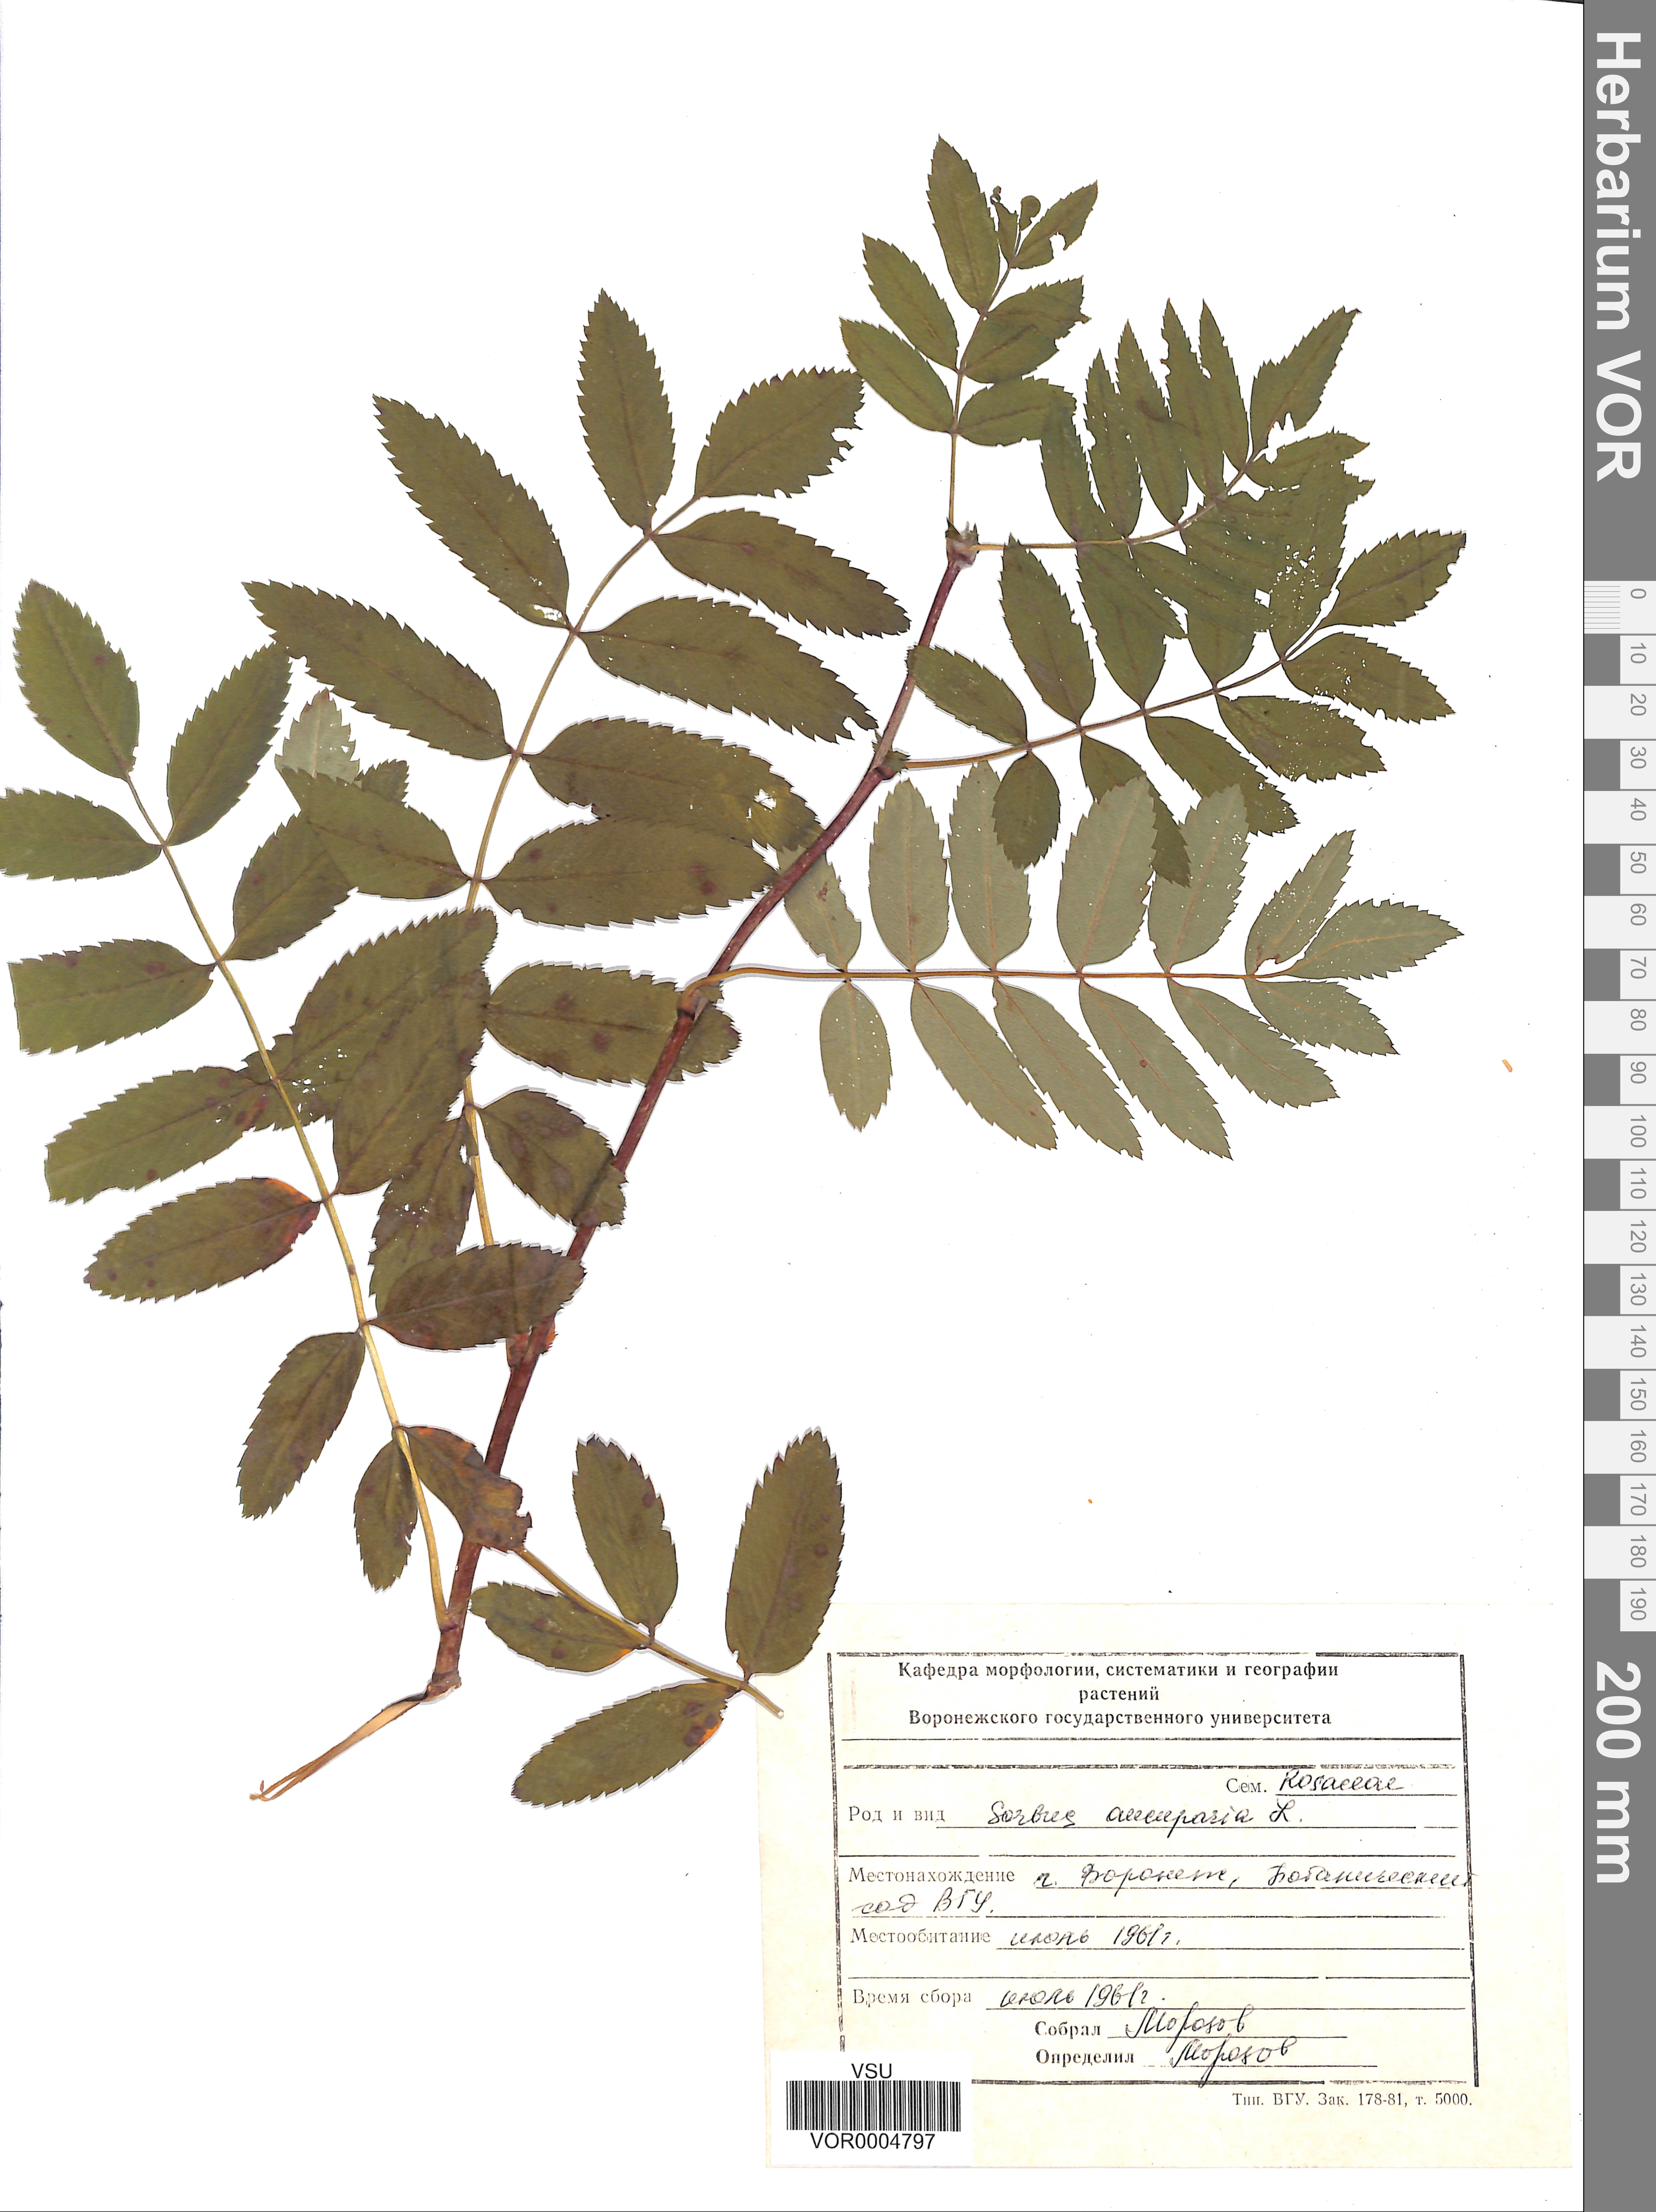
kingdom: Plantae
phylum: Tracheophyta
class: Magnoliopsida
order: Rosales
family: Rosaceae
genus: Sorbus
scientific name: Sorbus aucuparia
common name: Rowan
